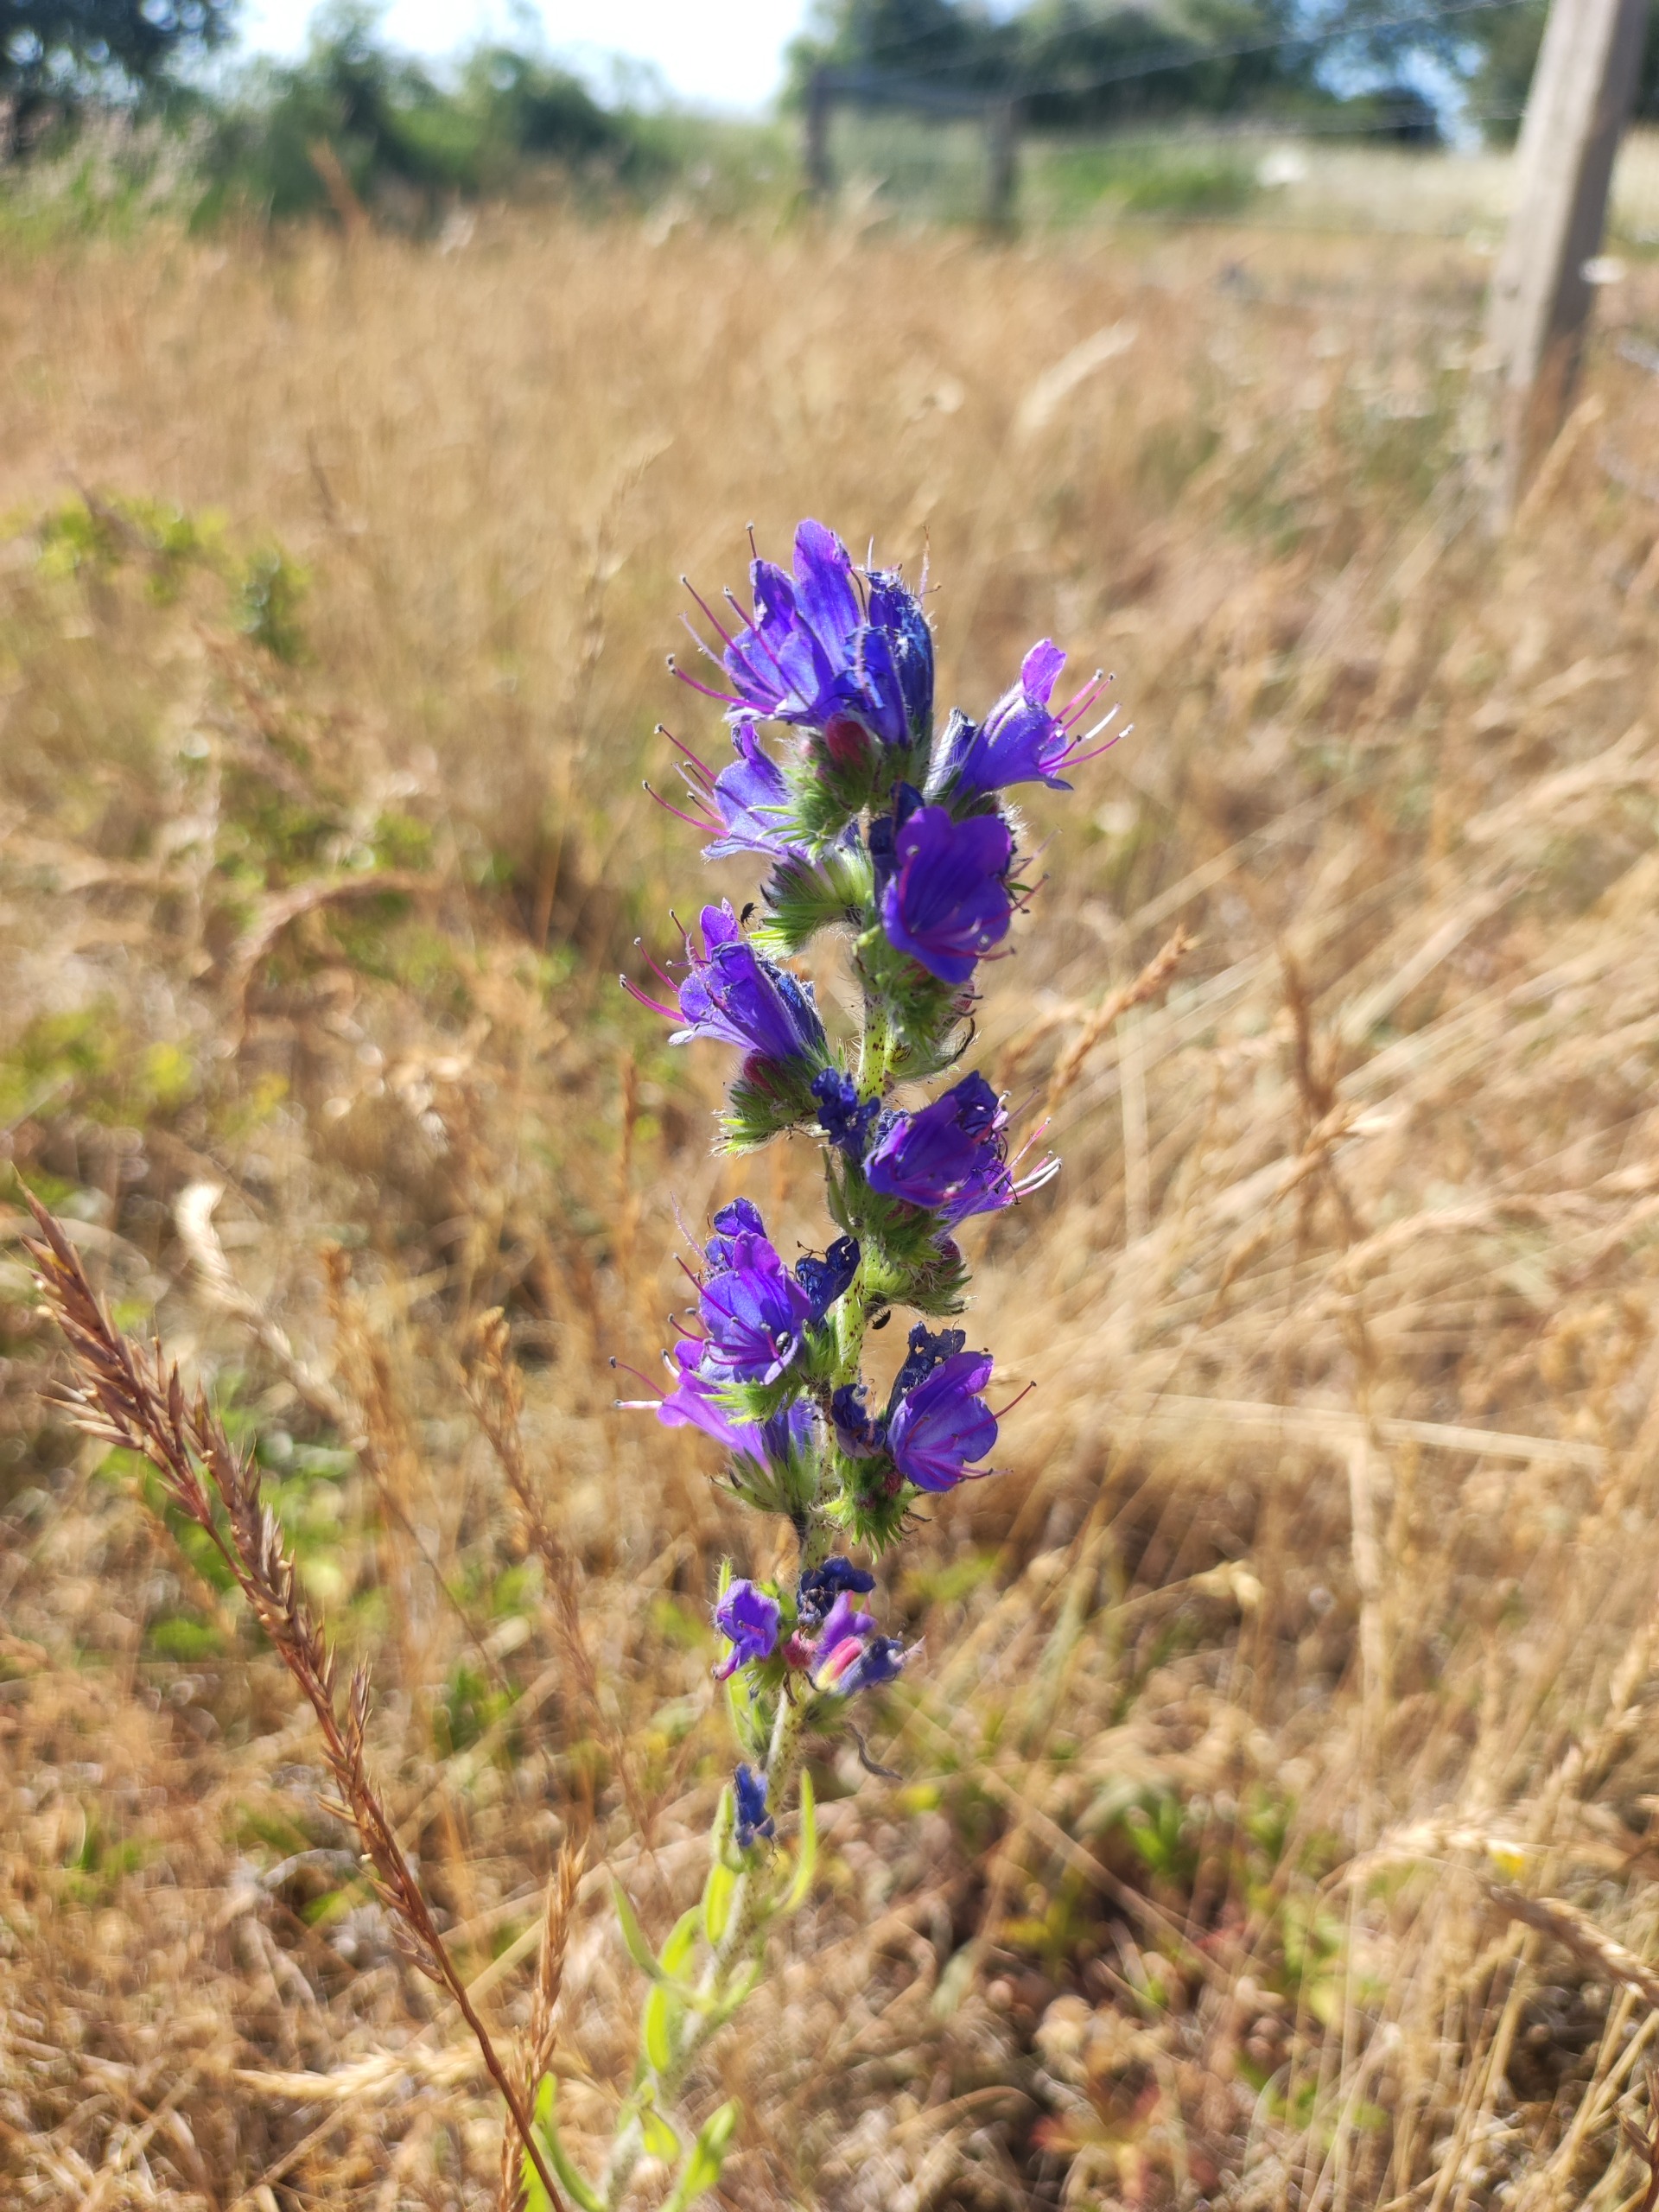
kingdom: Plantae
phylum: Tracheophyta
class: Magnoliopsida
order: Boraginales
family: Boraginaceae
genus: Echium
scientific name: Echium vulgare
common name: Slangehoved
